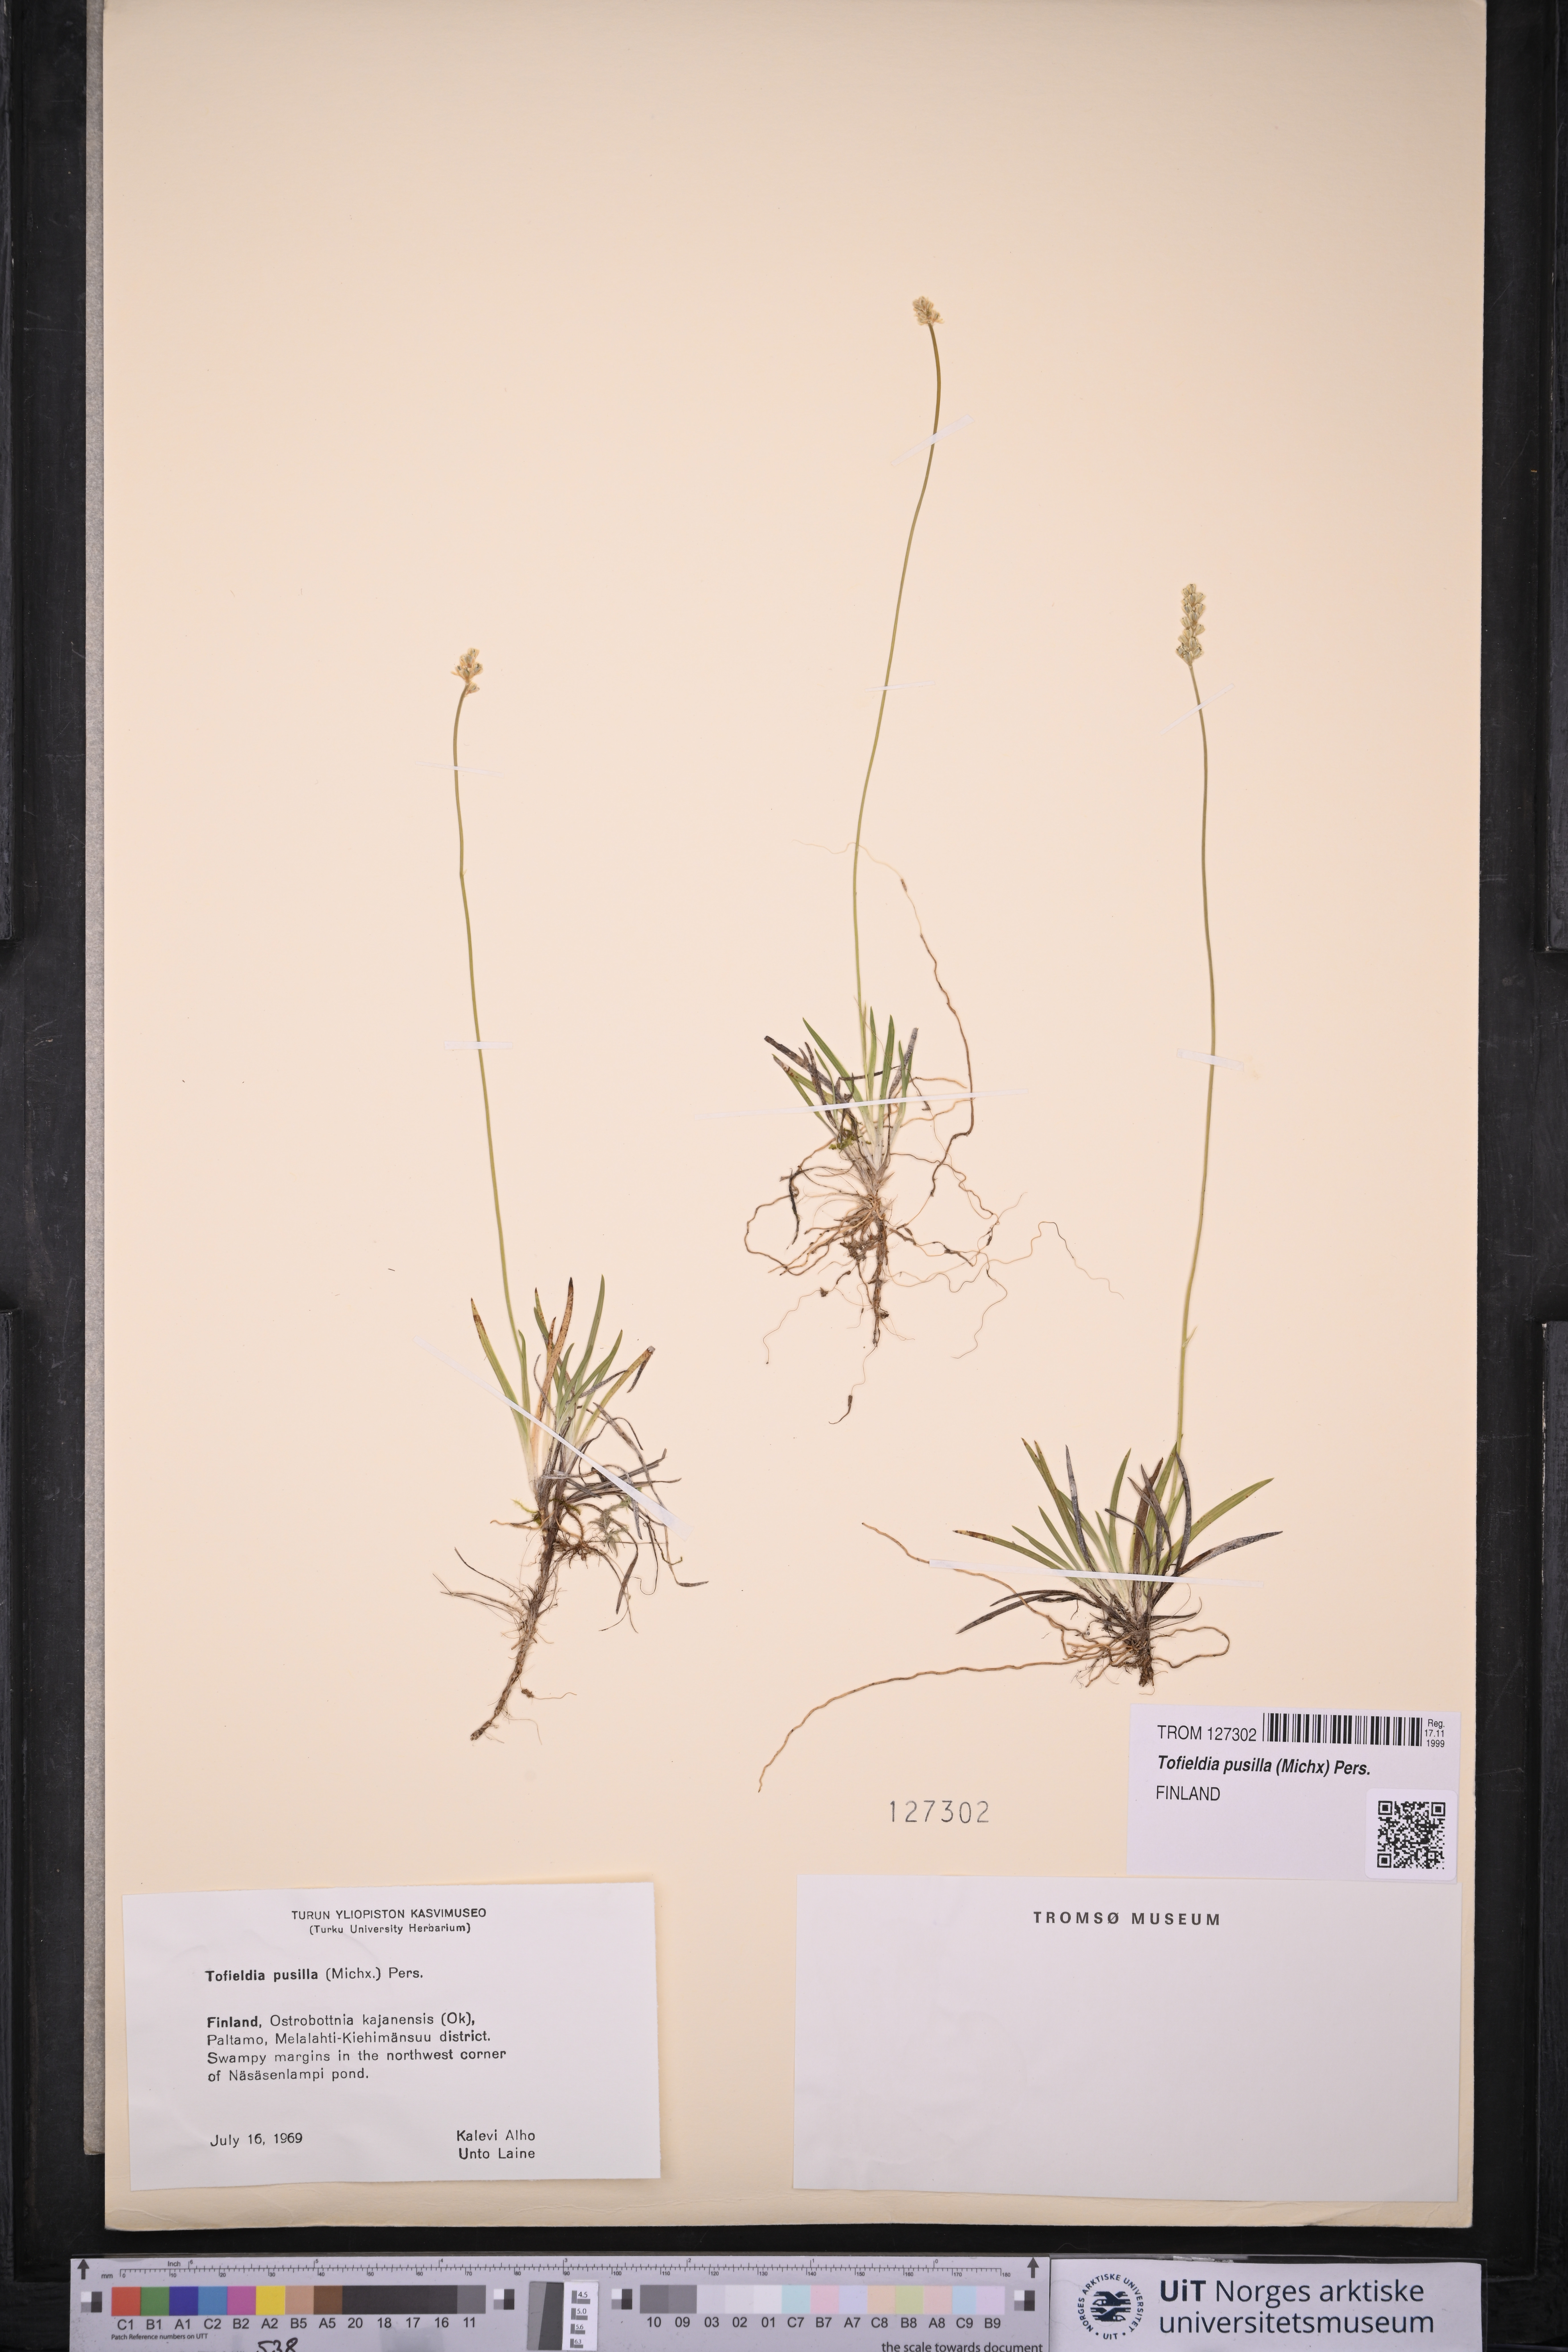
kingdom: Plantae
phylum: Tracheophyta
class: Liliopsida
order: Alismatales
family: Tofieldiaceae
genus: Tofieldia
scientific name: Tofieldia pusilla
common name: Scottish false asphodel
